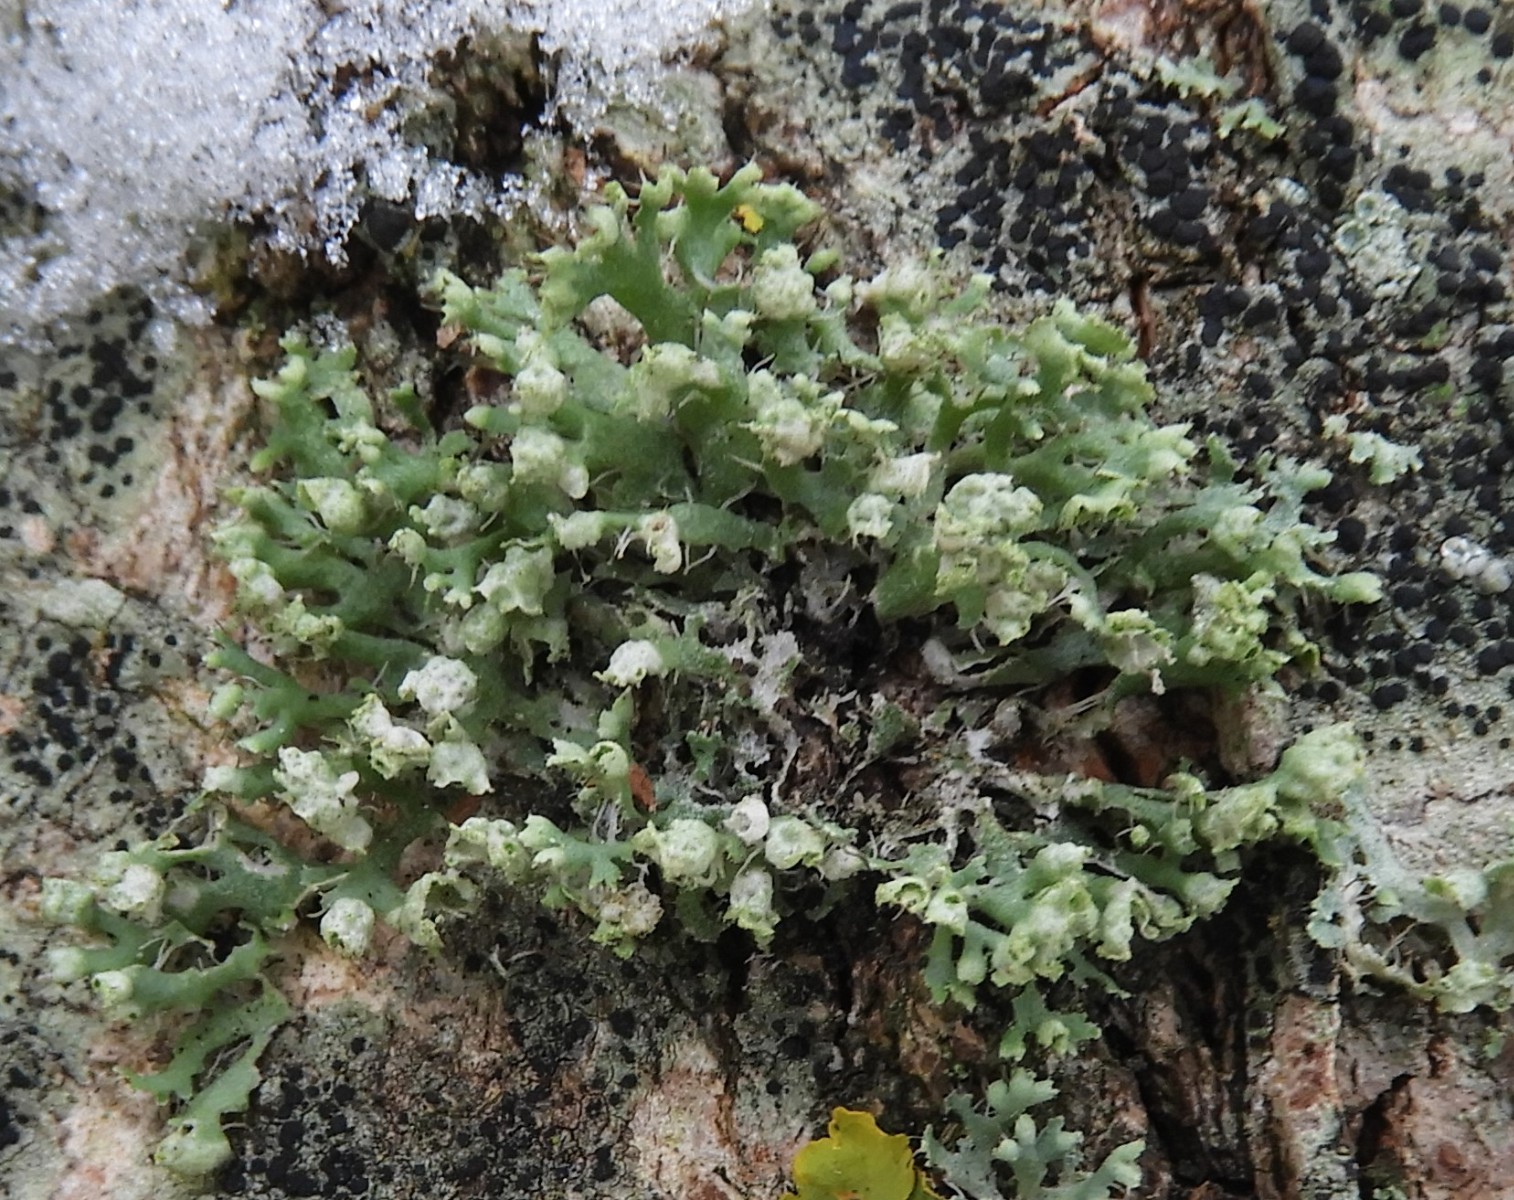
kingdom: Fungi
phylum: Ascomycota
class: Lecanoromycetes
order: Caliciales
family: Physciaceae
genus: Physcia
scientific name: Physcia adscendens
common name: hætte-rosetlav
